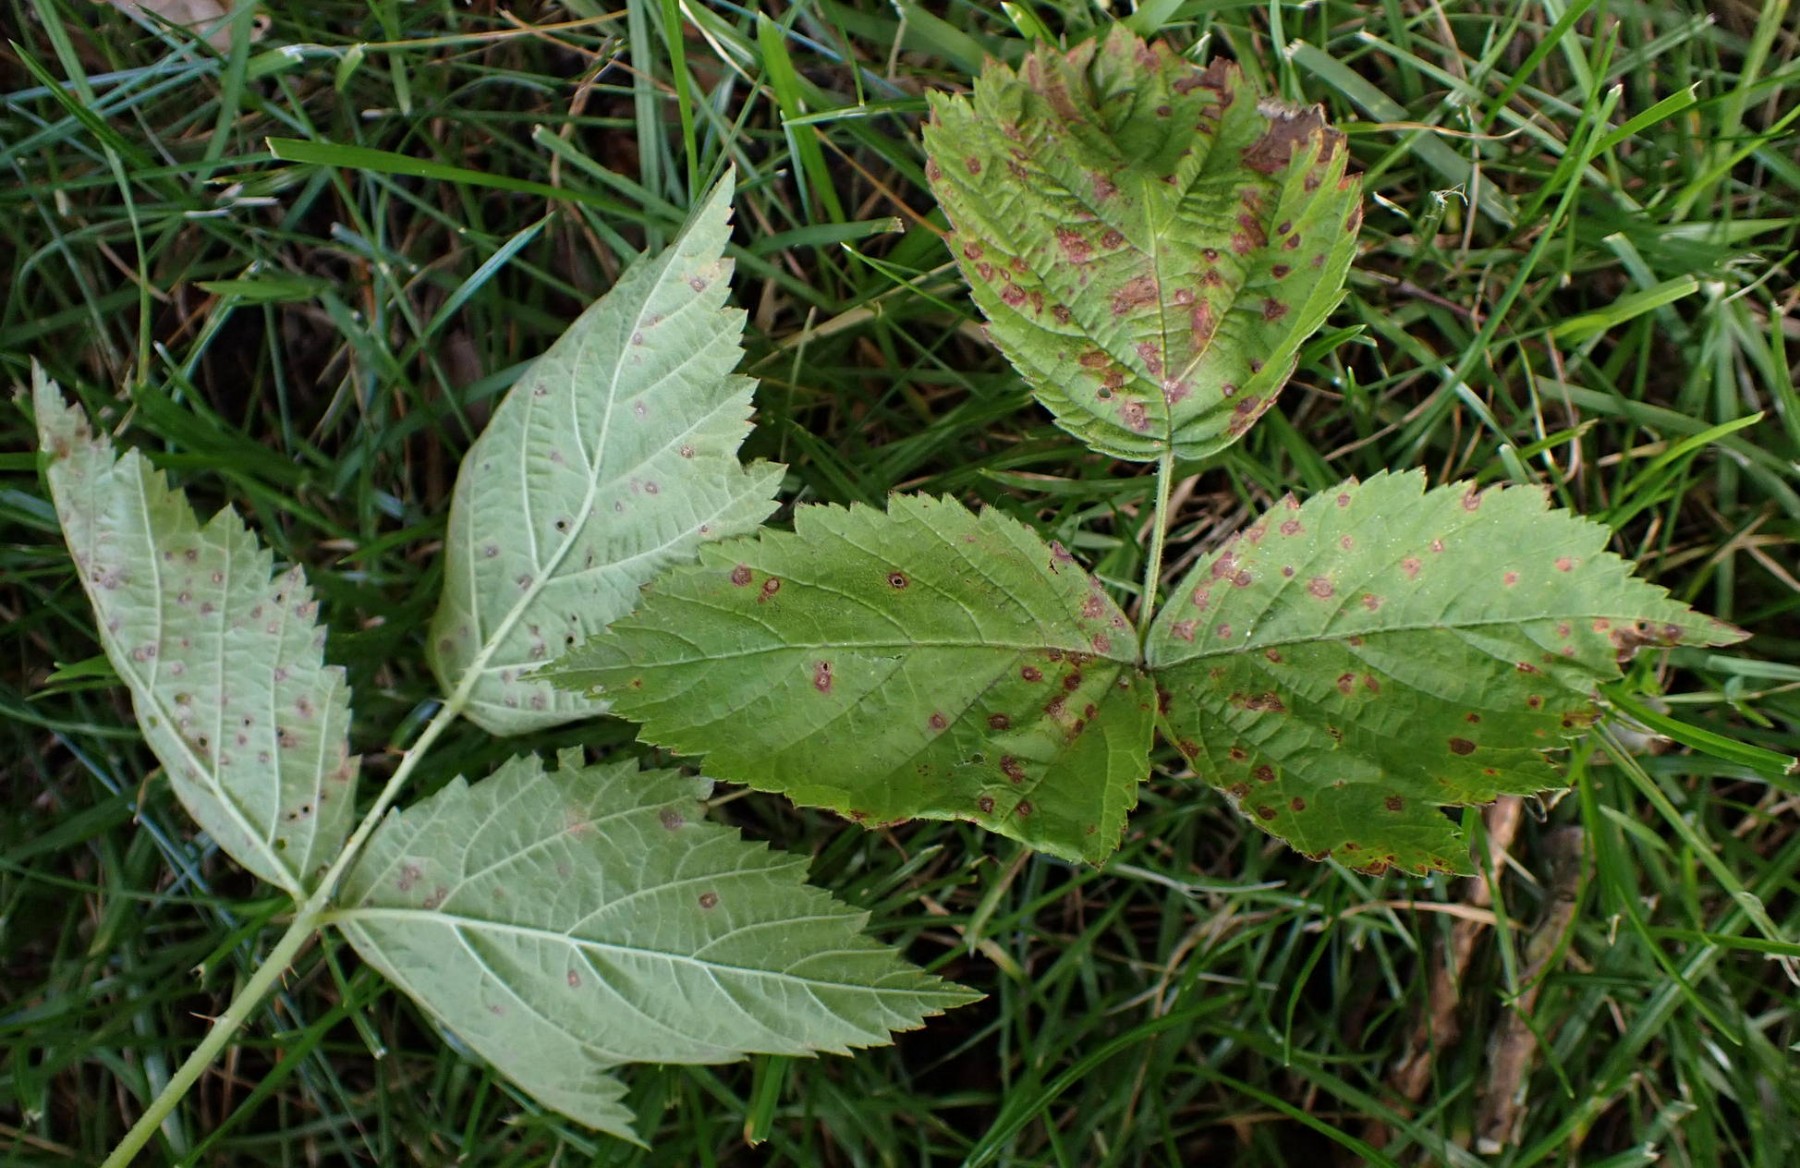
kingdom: Fungi
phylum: Basidiomycota
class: Pucciniomycetes
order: Pucciniales
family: Phragmidiaceae
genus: Phragmidium
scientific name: Phragmidium violaceum
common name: violet flercellerust
